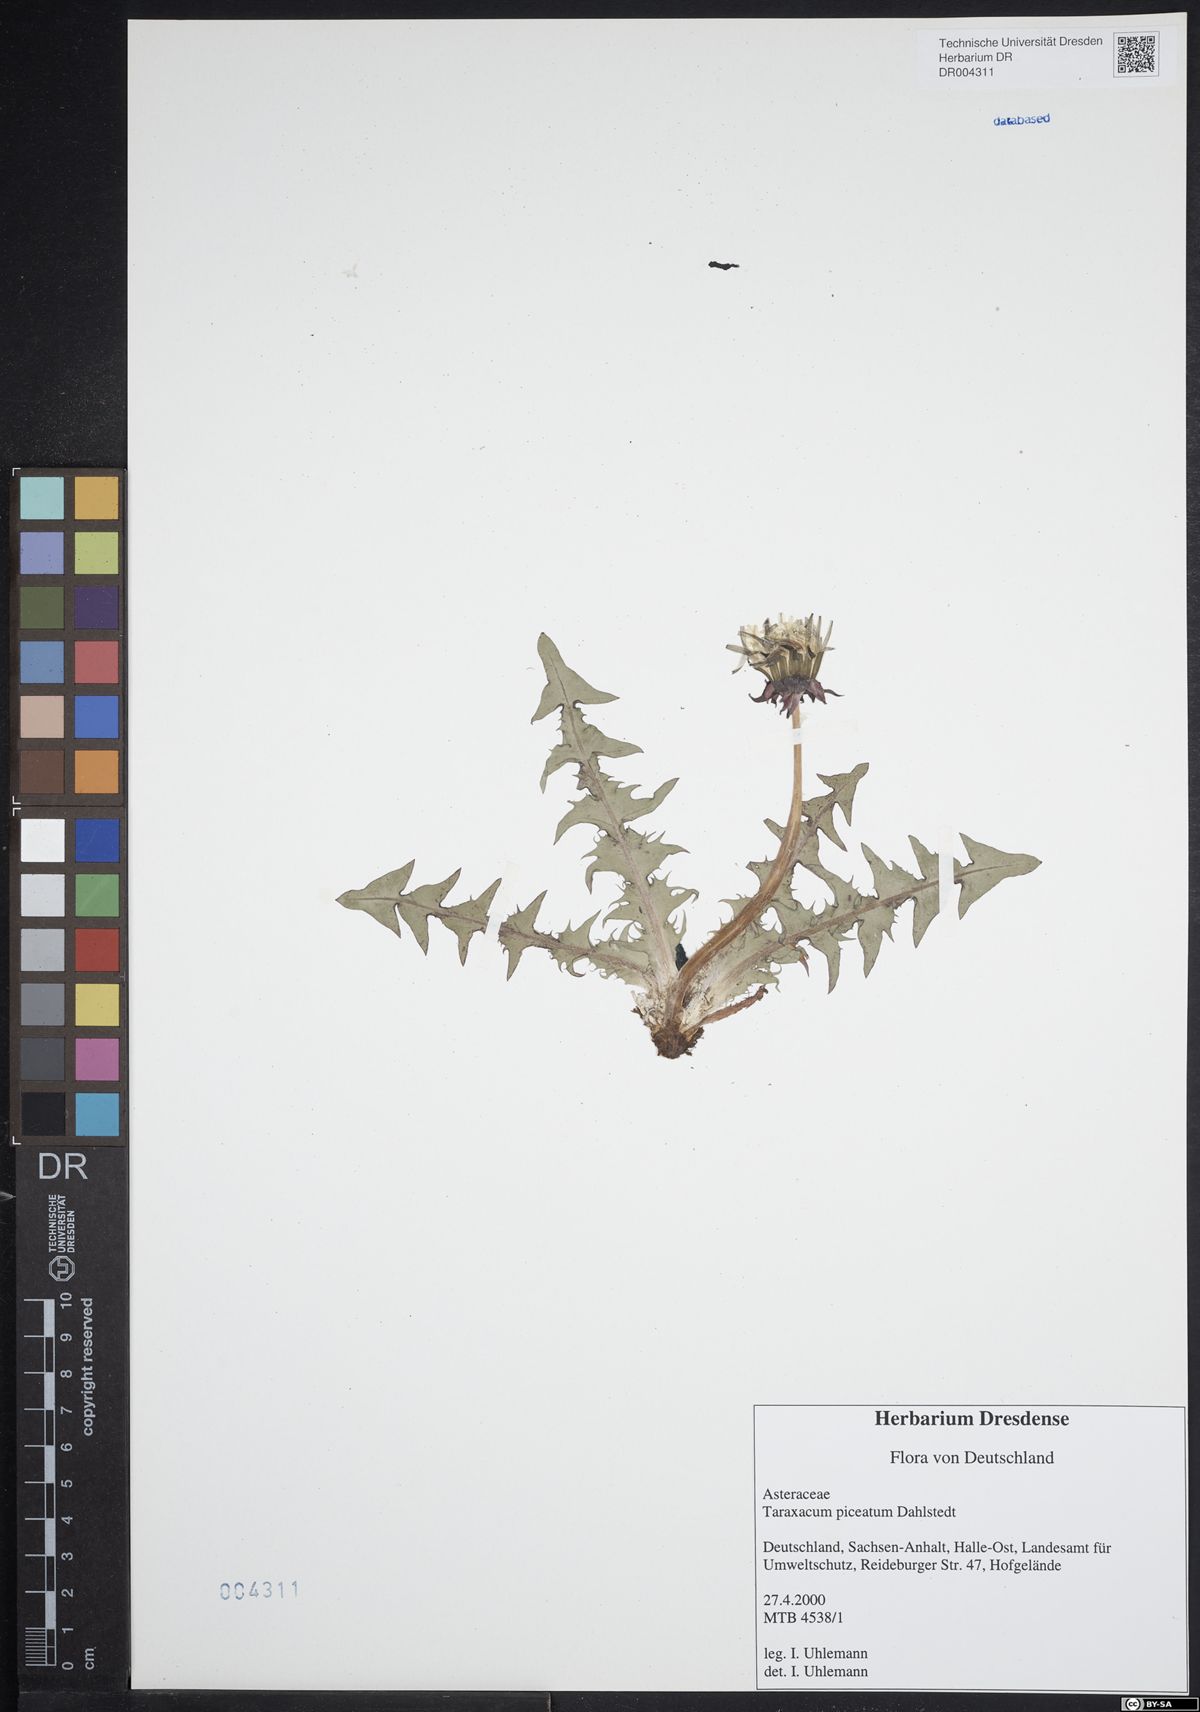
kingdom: Plantae
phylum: Tracheophyta
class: Magnoliopsida
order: Asterales
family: Asteraceae
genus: Taraxacum
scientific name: Taraxacum piceatum
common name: Leaden-bracted dandelion
